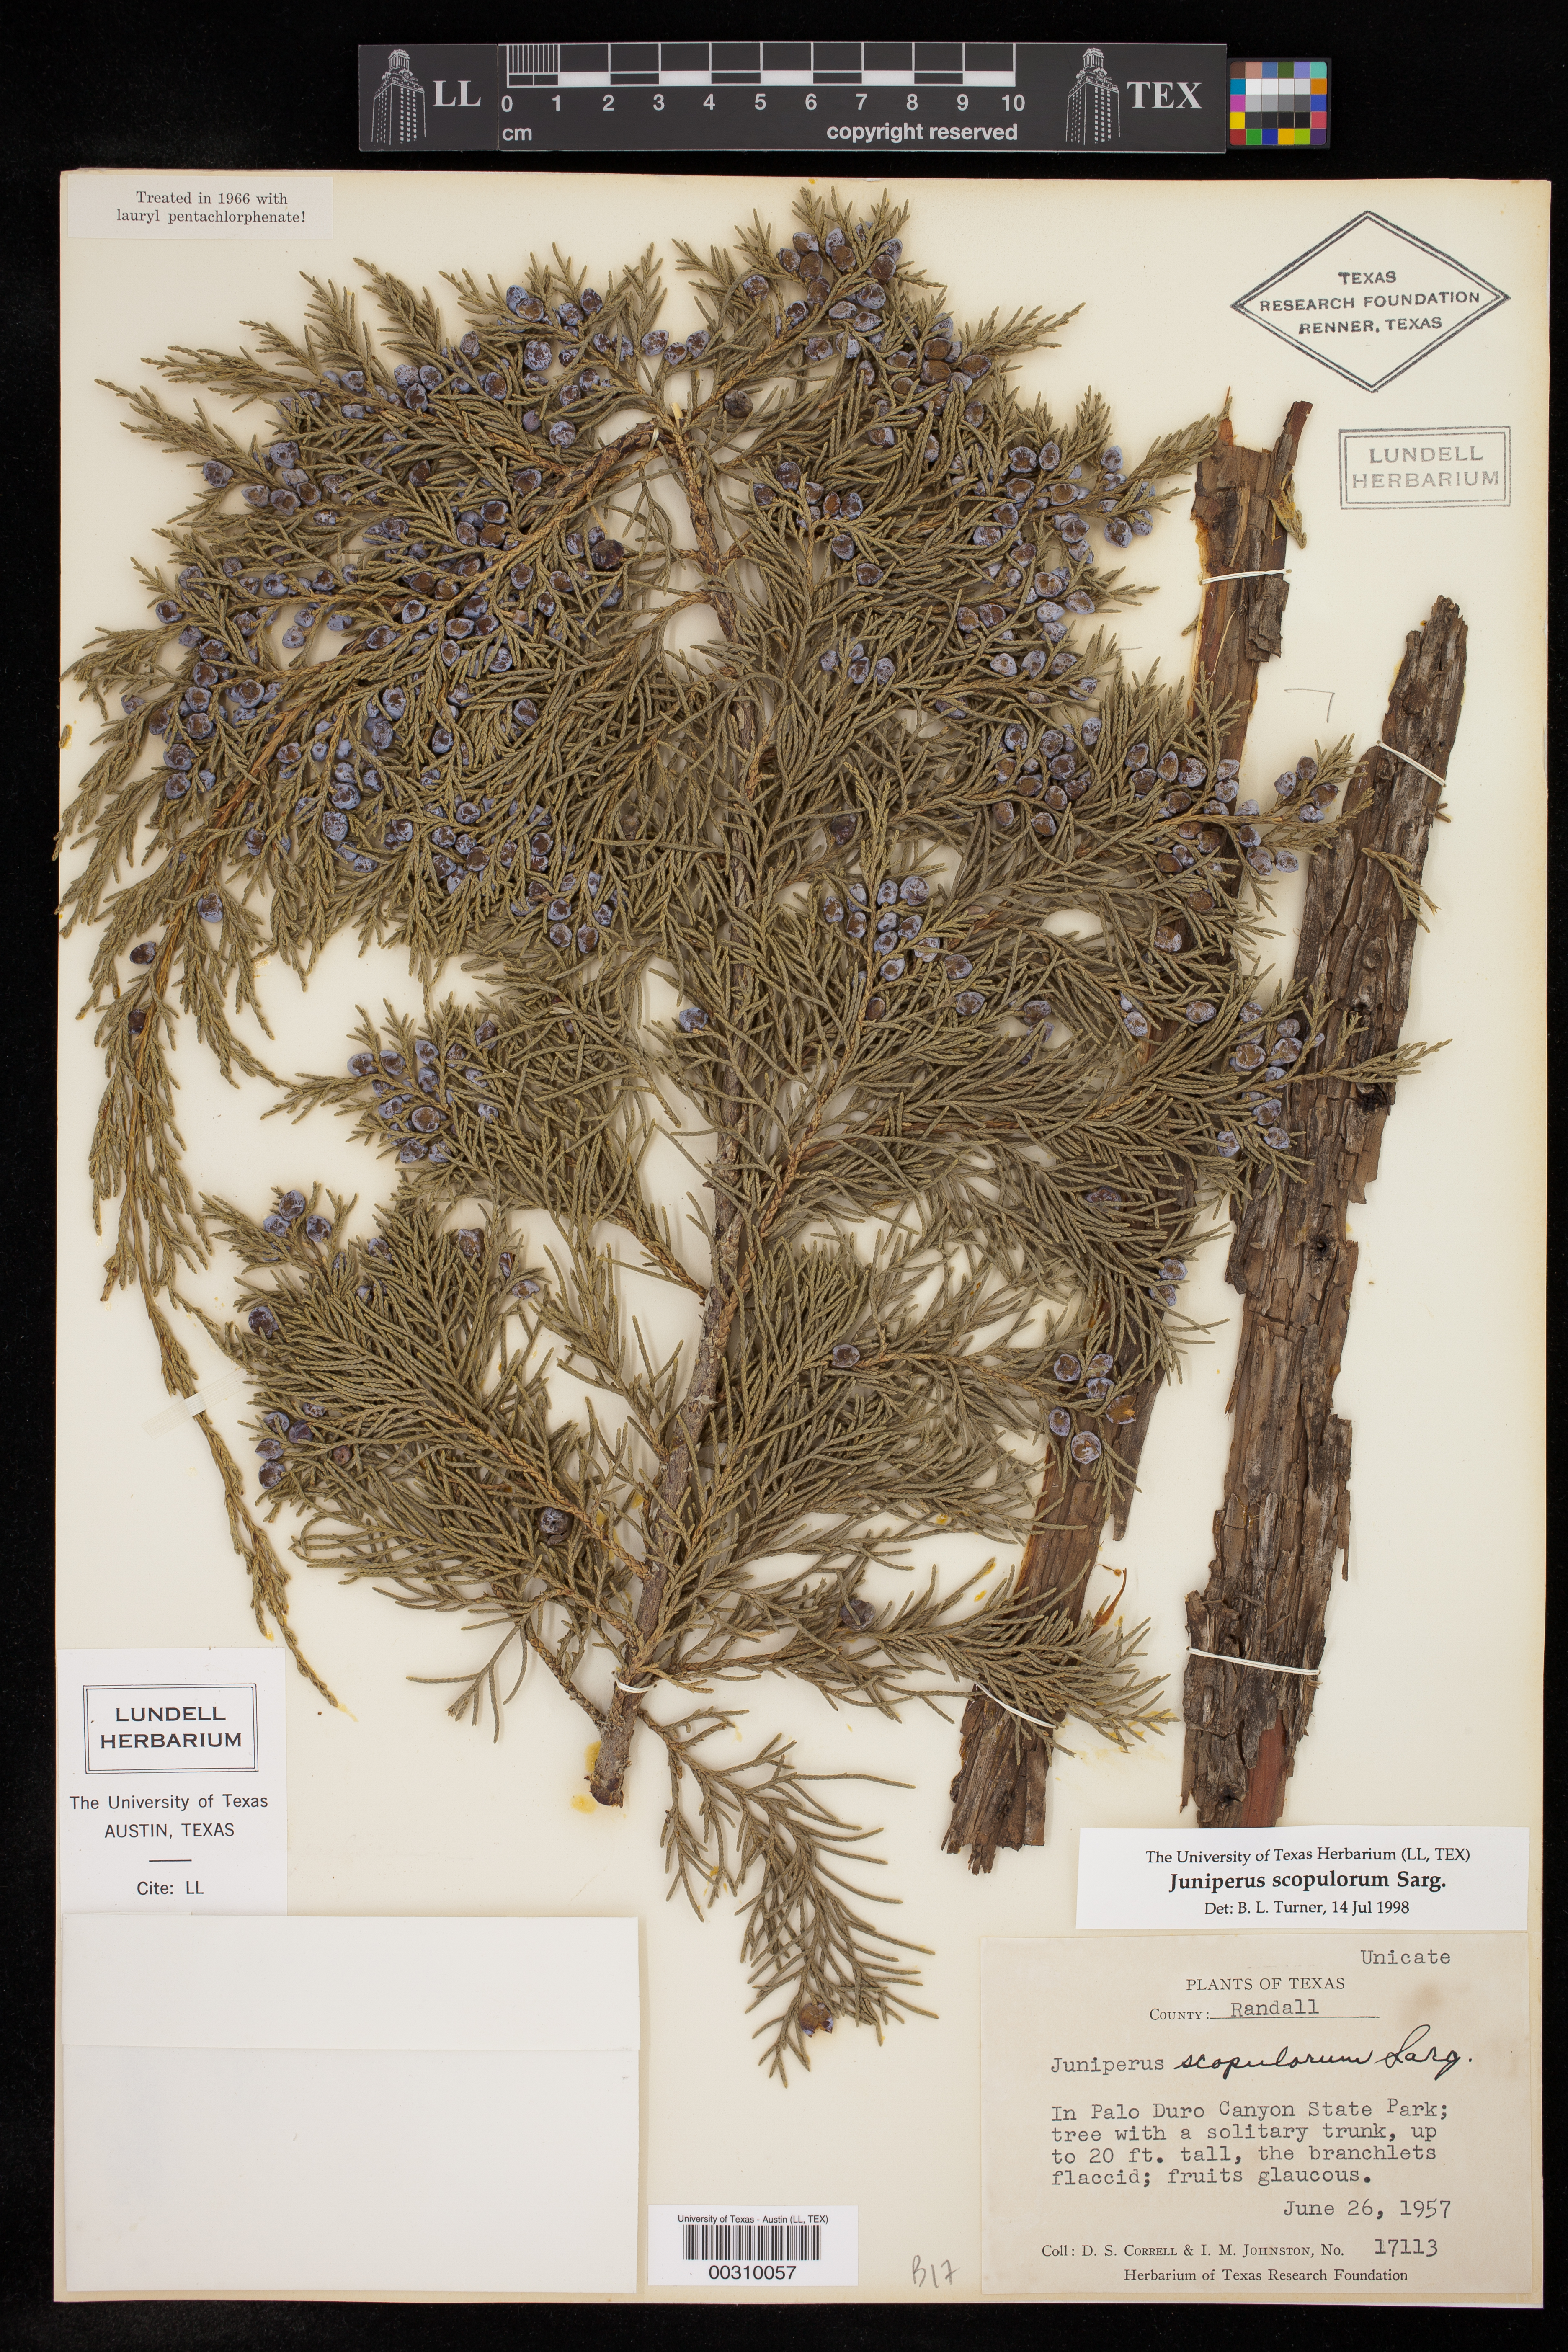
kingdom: Plantae
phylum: Tracheophyta
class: Pinopsida
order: Pinales
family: Cupressaceae
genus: Juniperus
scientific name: Juniperus scopulorum
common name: Rocky mountain juniper
